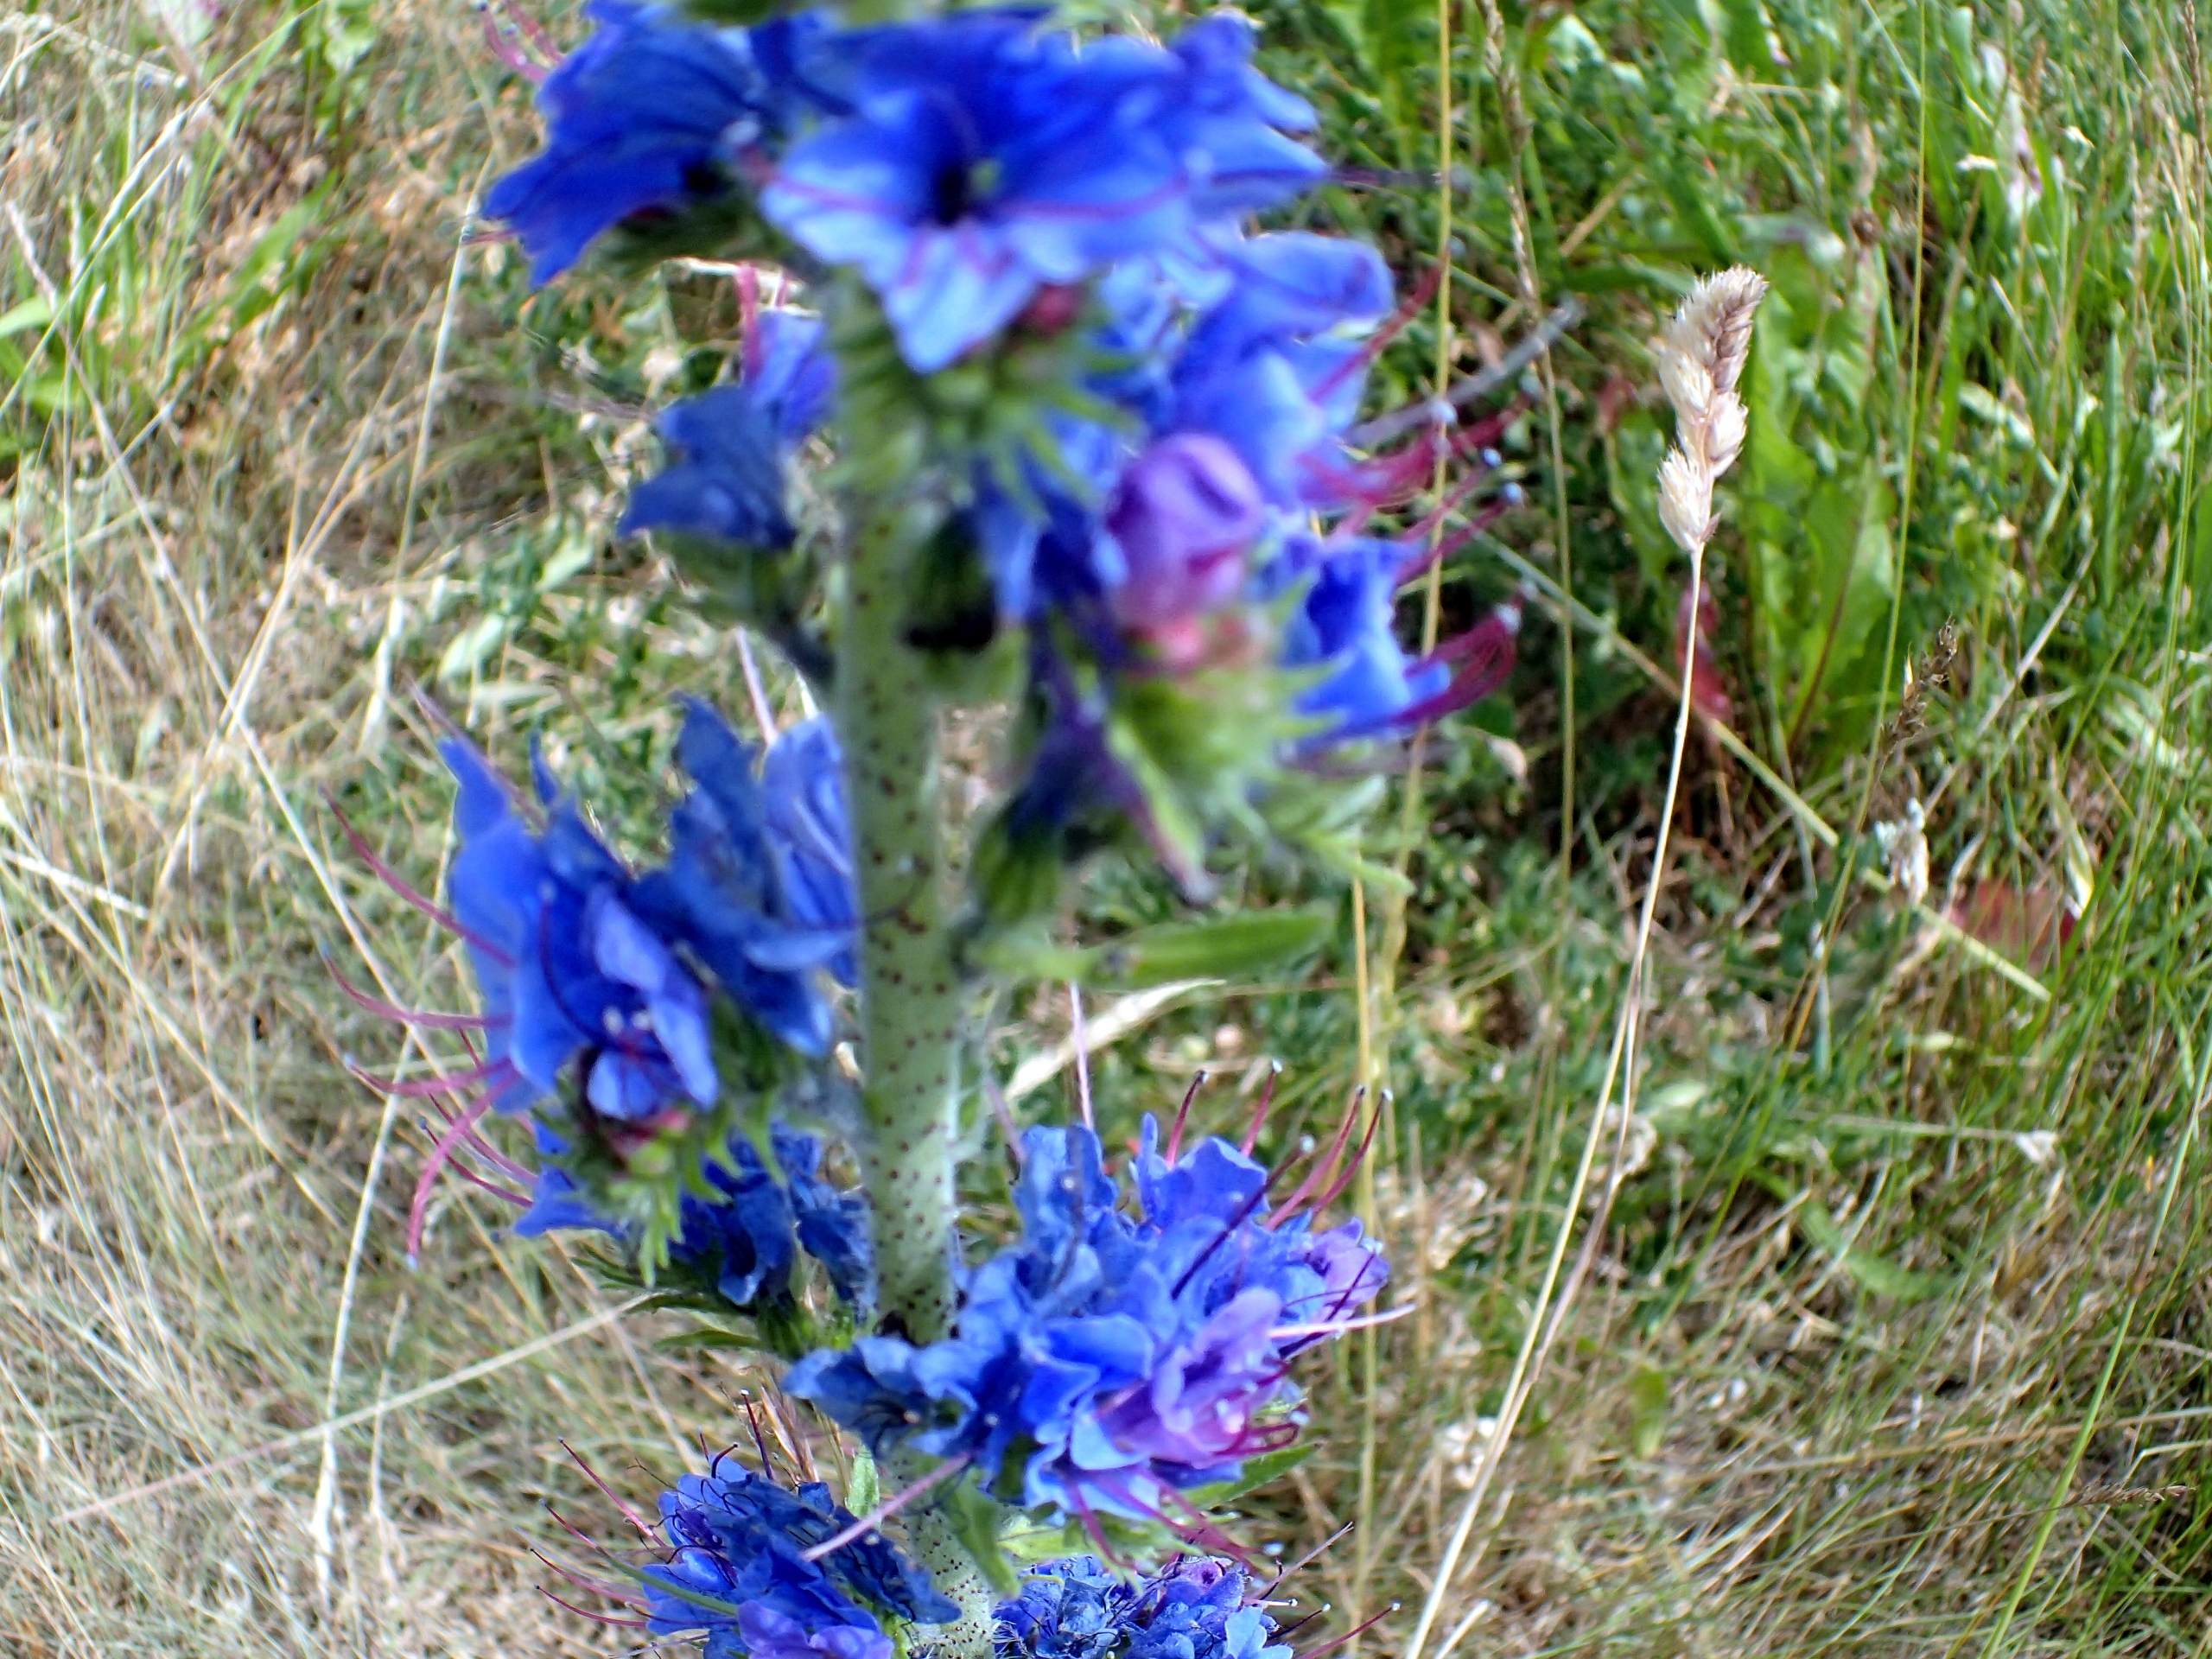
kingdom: Plantae
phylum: Tracheophyta
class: Magnoliopsida
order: Boraginales
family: Boraginaceae
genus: Echium
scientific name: Echium vulgare
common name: Slangehoved
